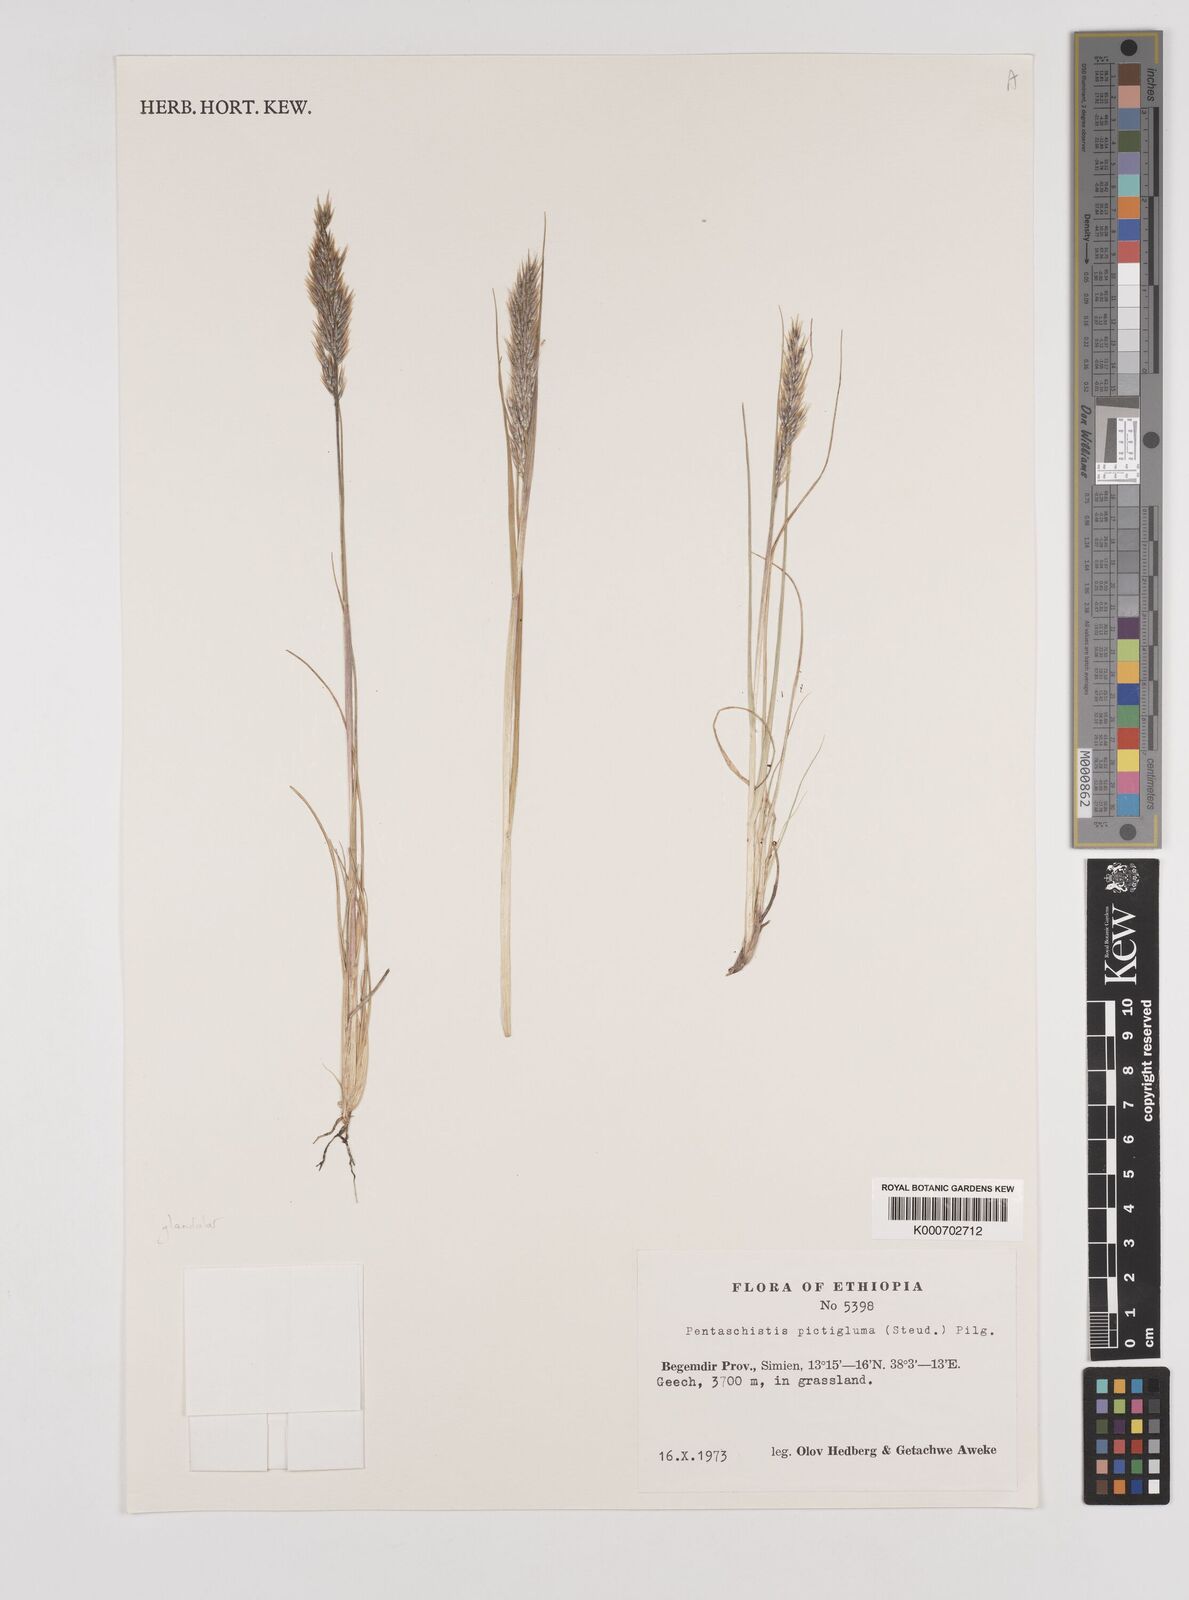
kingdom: Plantae
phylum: Tracheophyta
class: Liliopsida
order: Poales
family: Poaceae
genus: Pentameris
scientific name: Pentameris pictigluma
